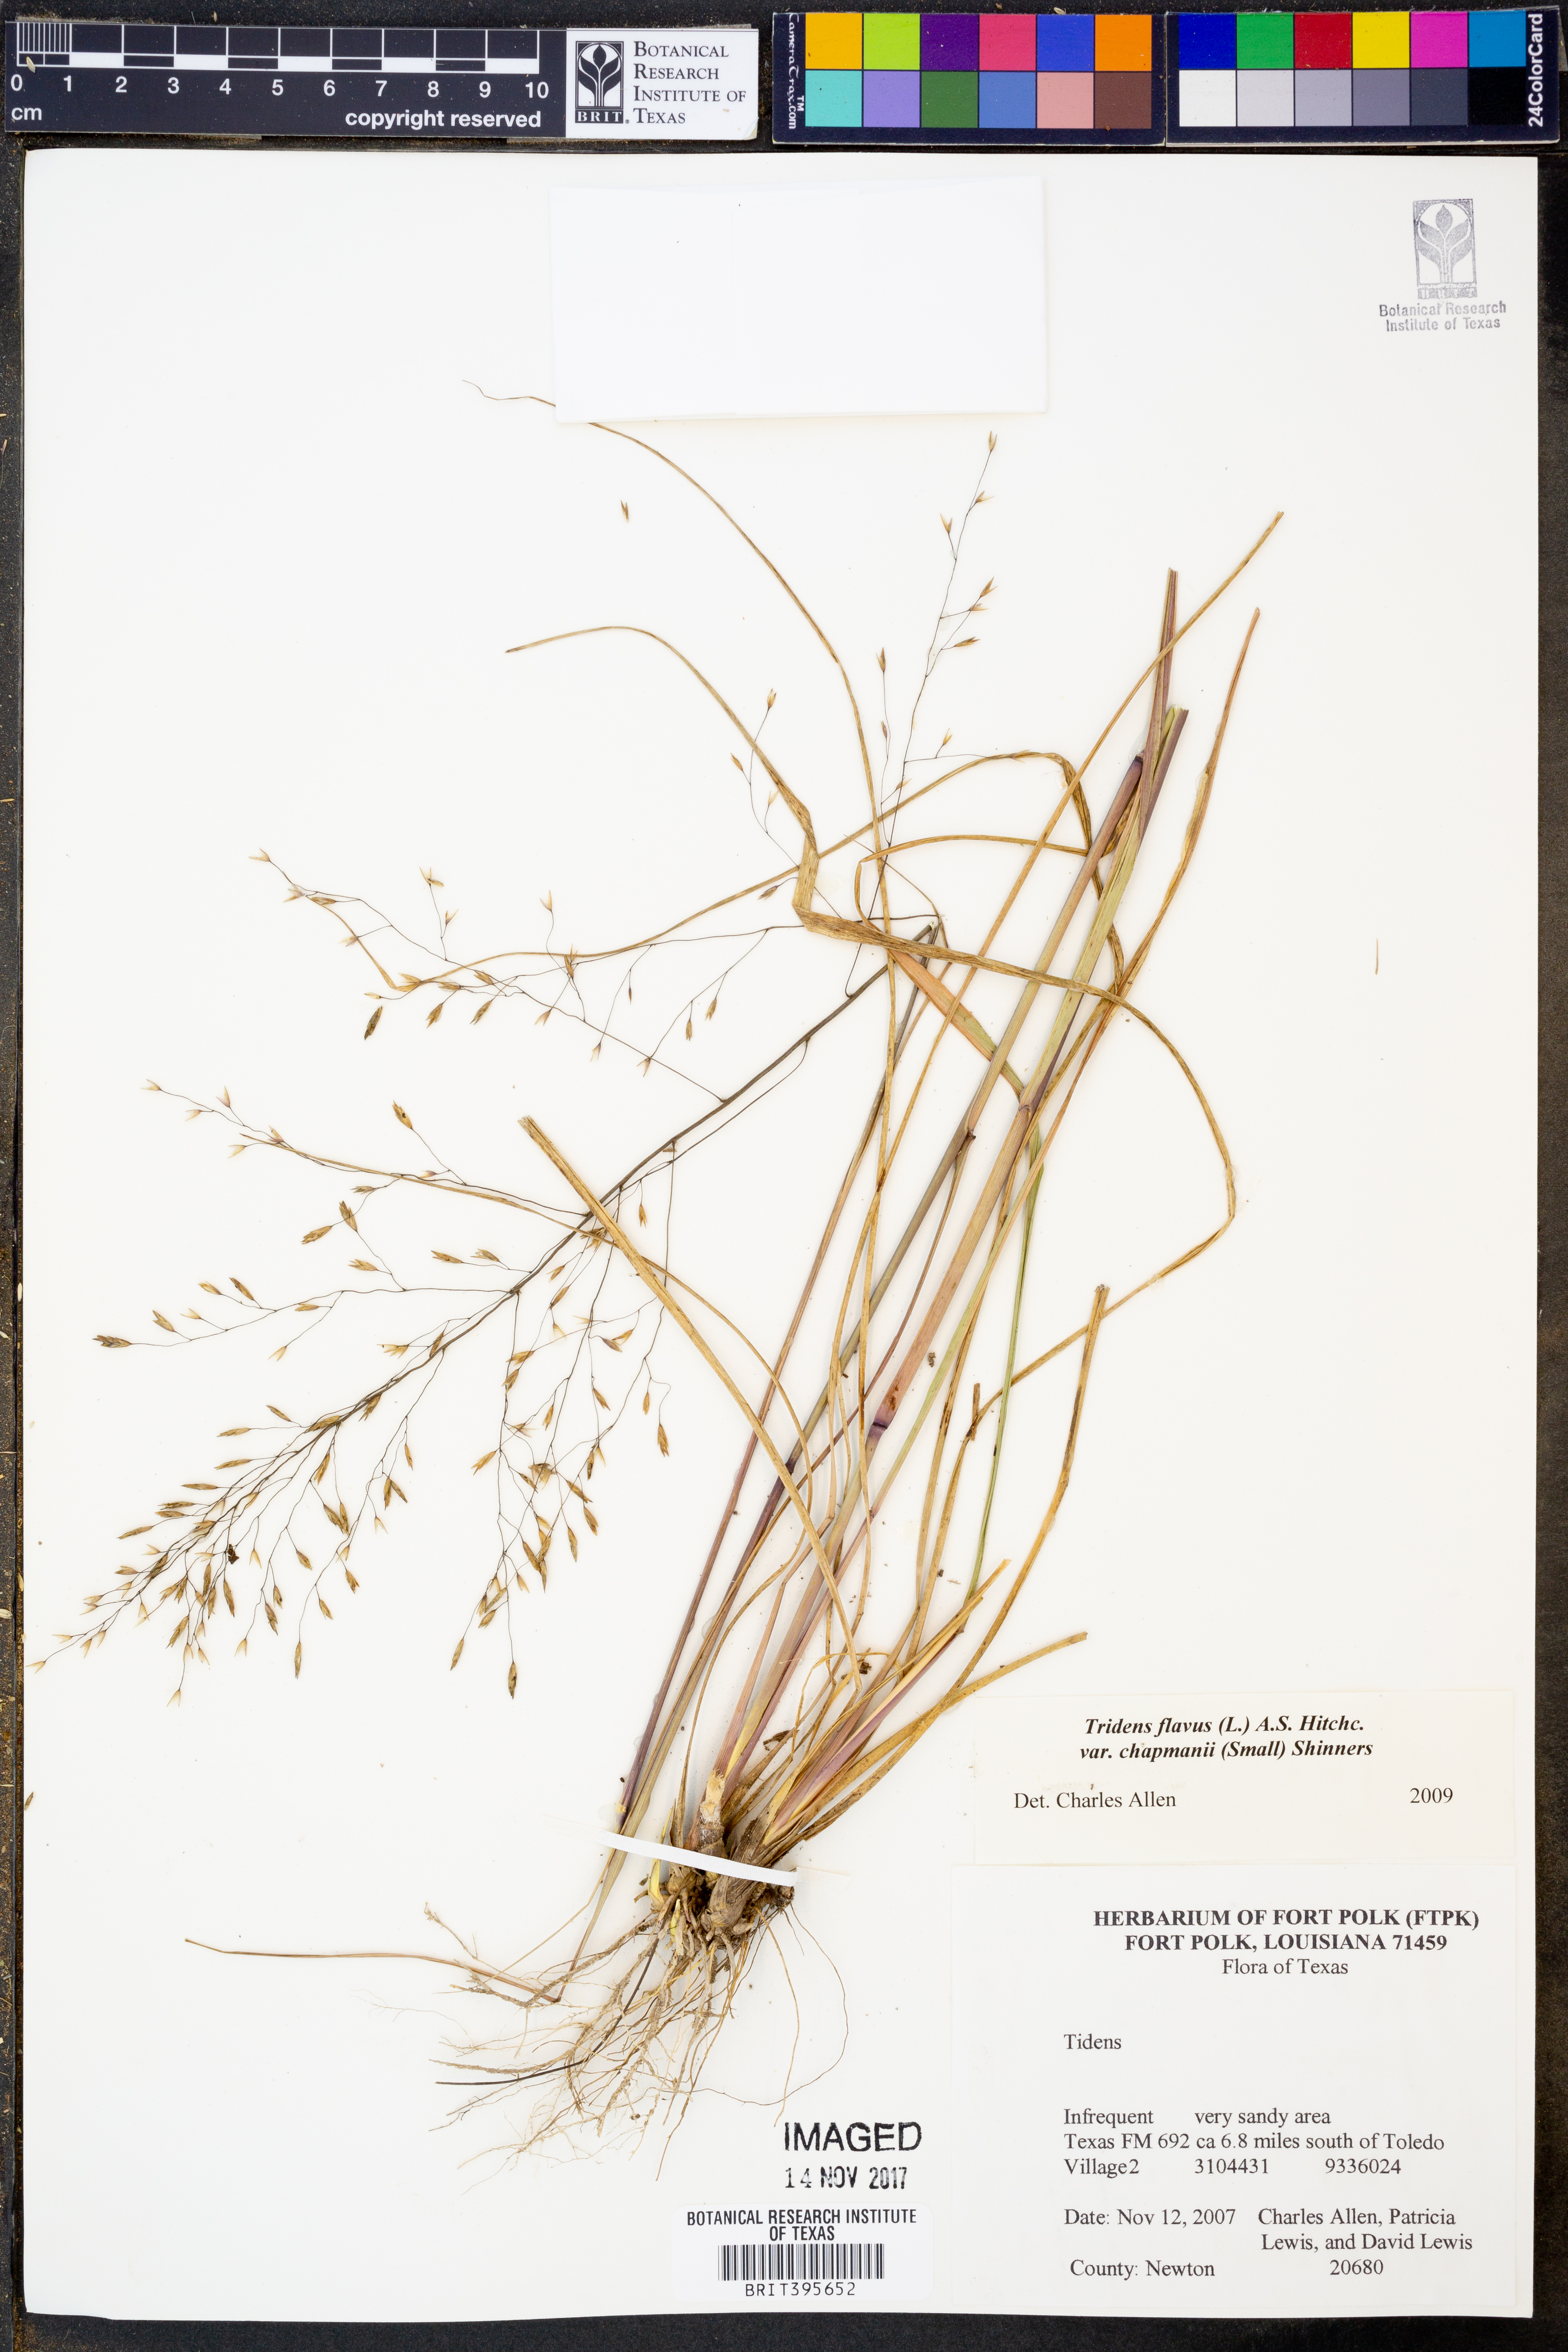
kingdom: Plantae
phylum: Tracheophyta
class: Liliopsida
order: Poales
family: Poaceae
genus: Tridens
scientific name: Tridens chapmanii
